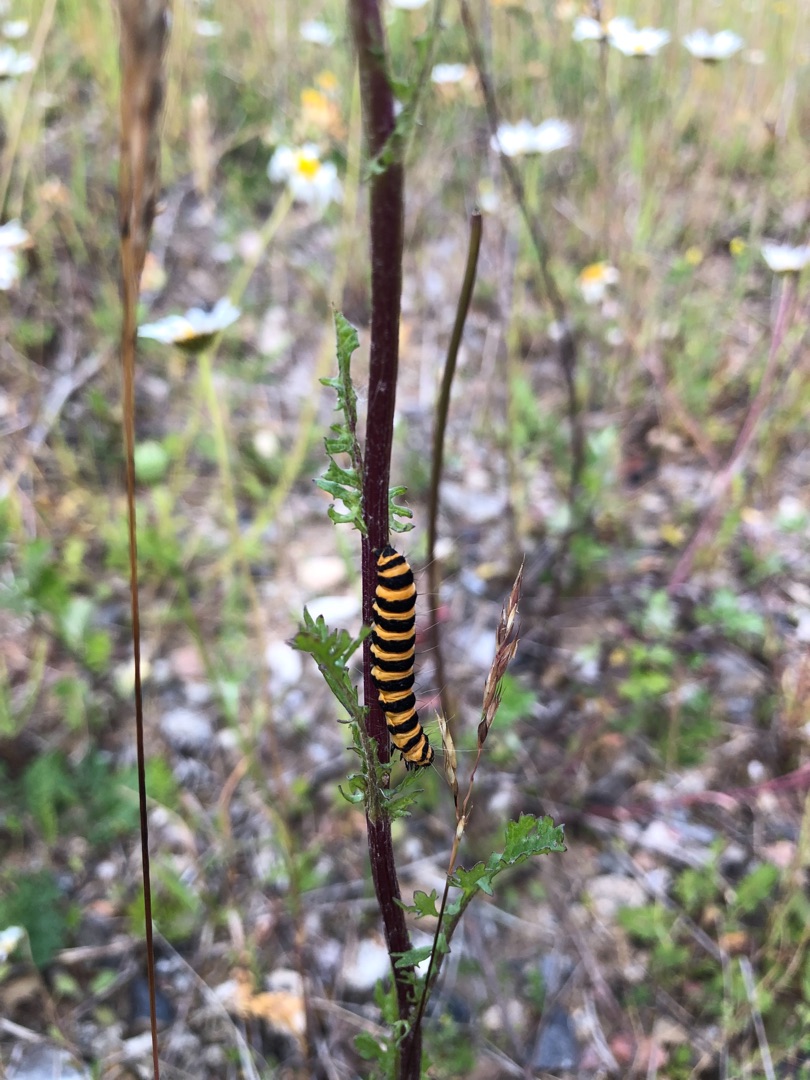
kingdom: Animalia
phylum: Arthropoda
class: Insecta
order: Lepidoptera
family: Erebidae
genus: Tyria
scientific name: Tyria jacobaeae
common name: Blodplet
